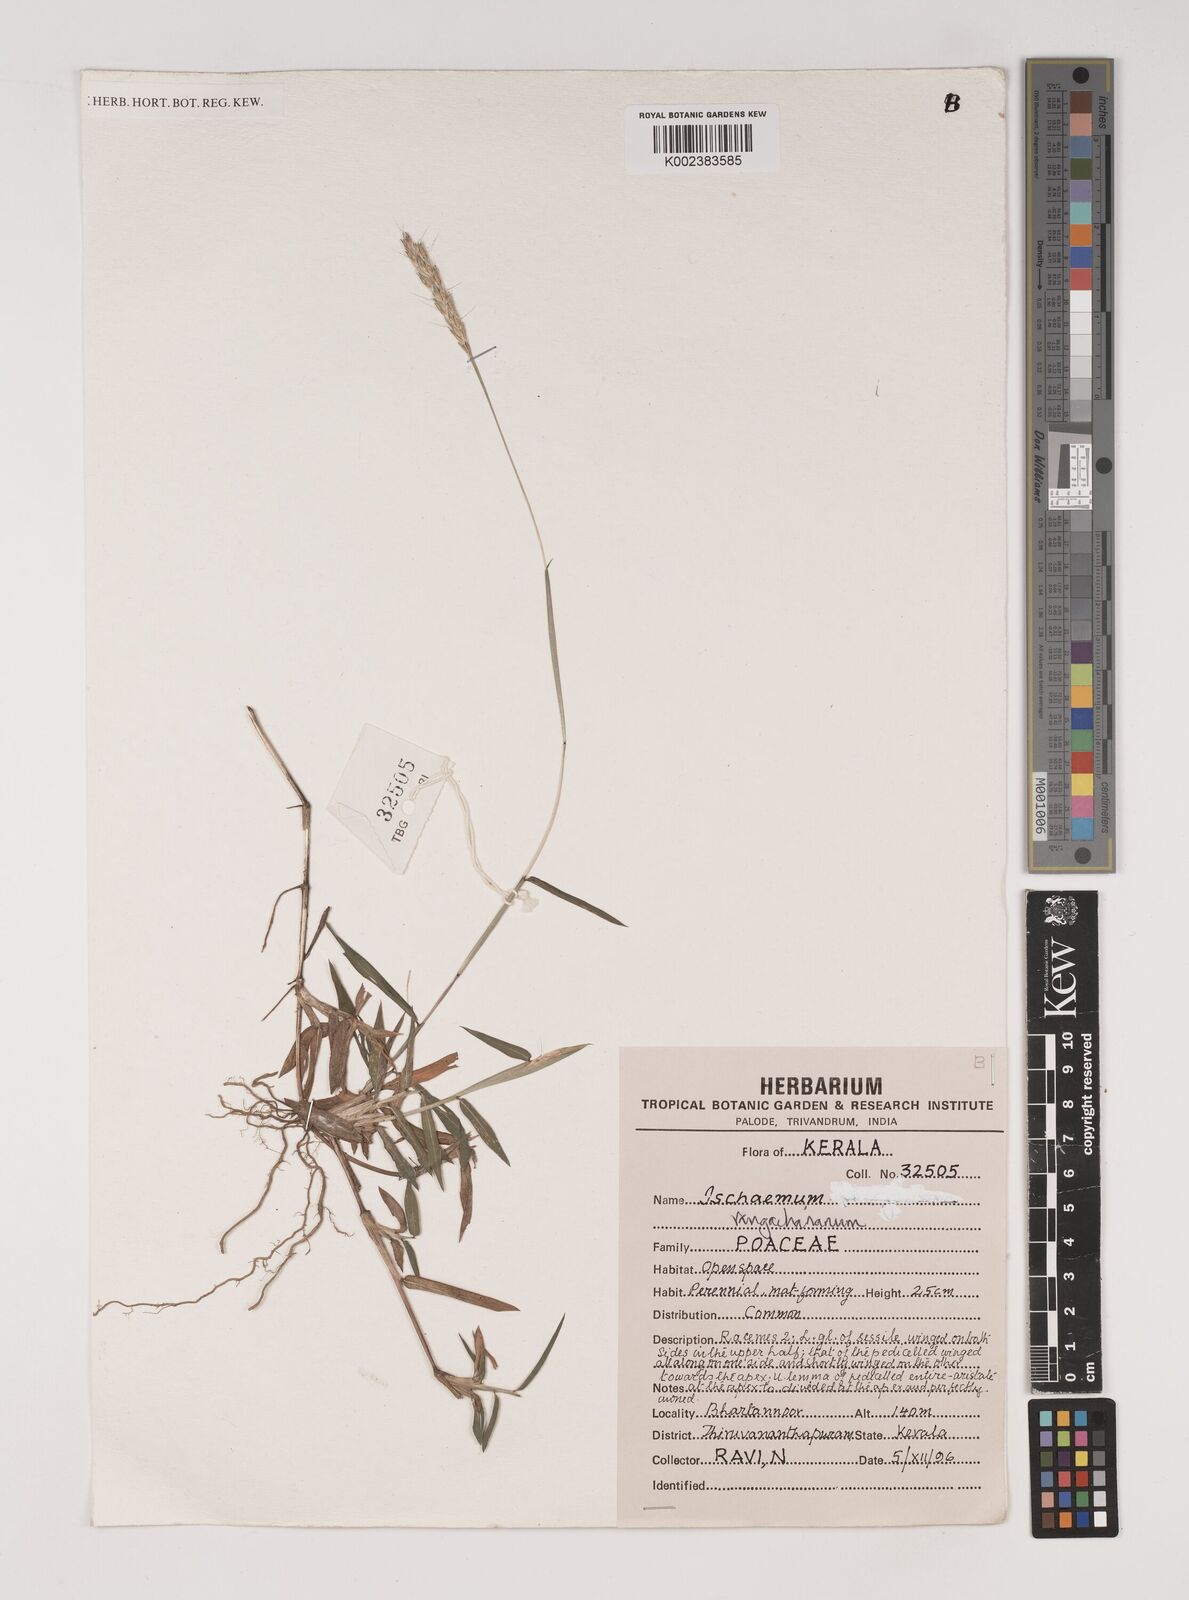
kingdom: Plantae
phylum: Tracheophyta
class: Liliopsida
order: Poales
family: Poaceae
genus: Ischaemum
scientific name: Ischaemum rangacharianum
